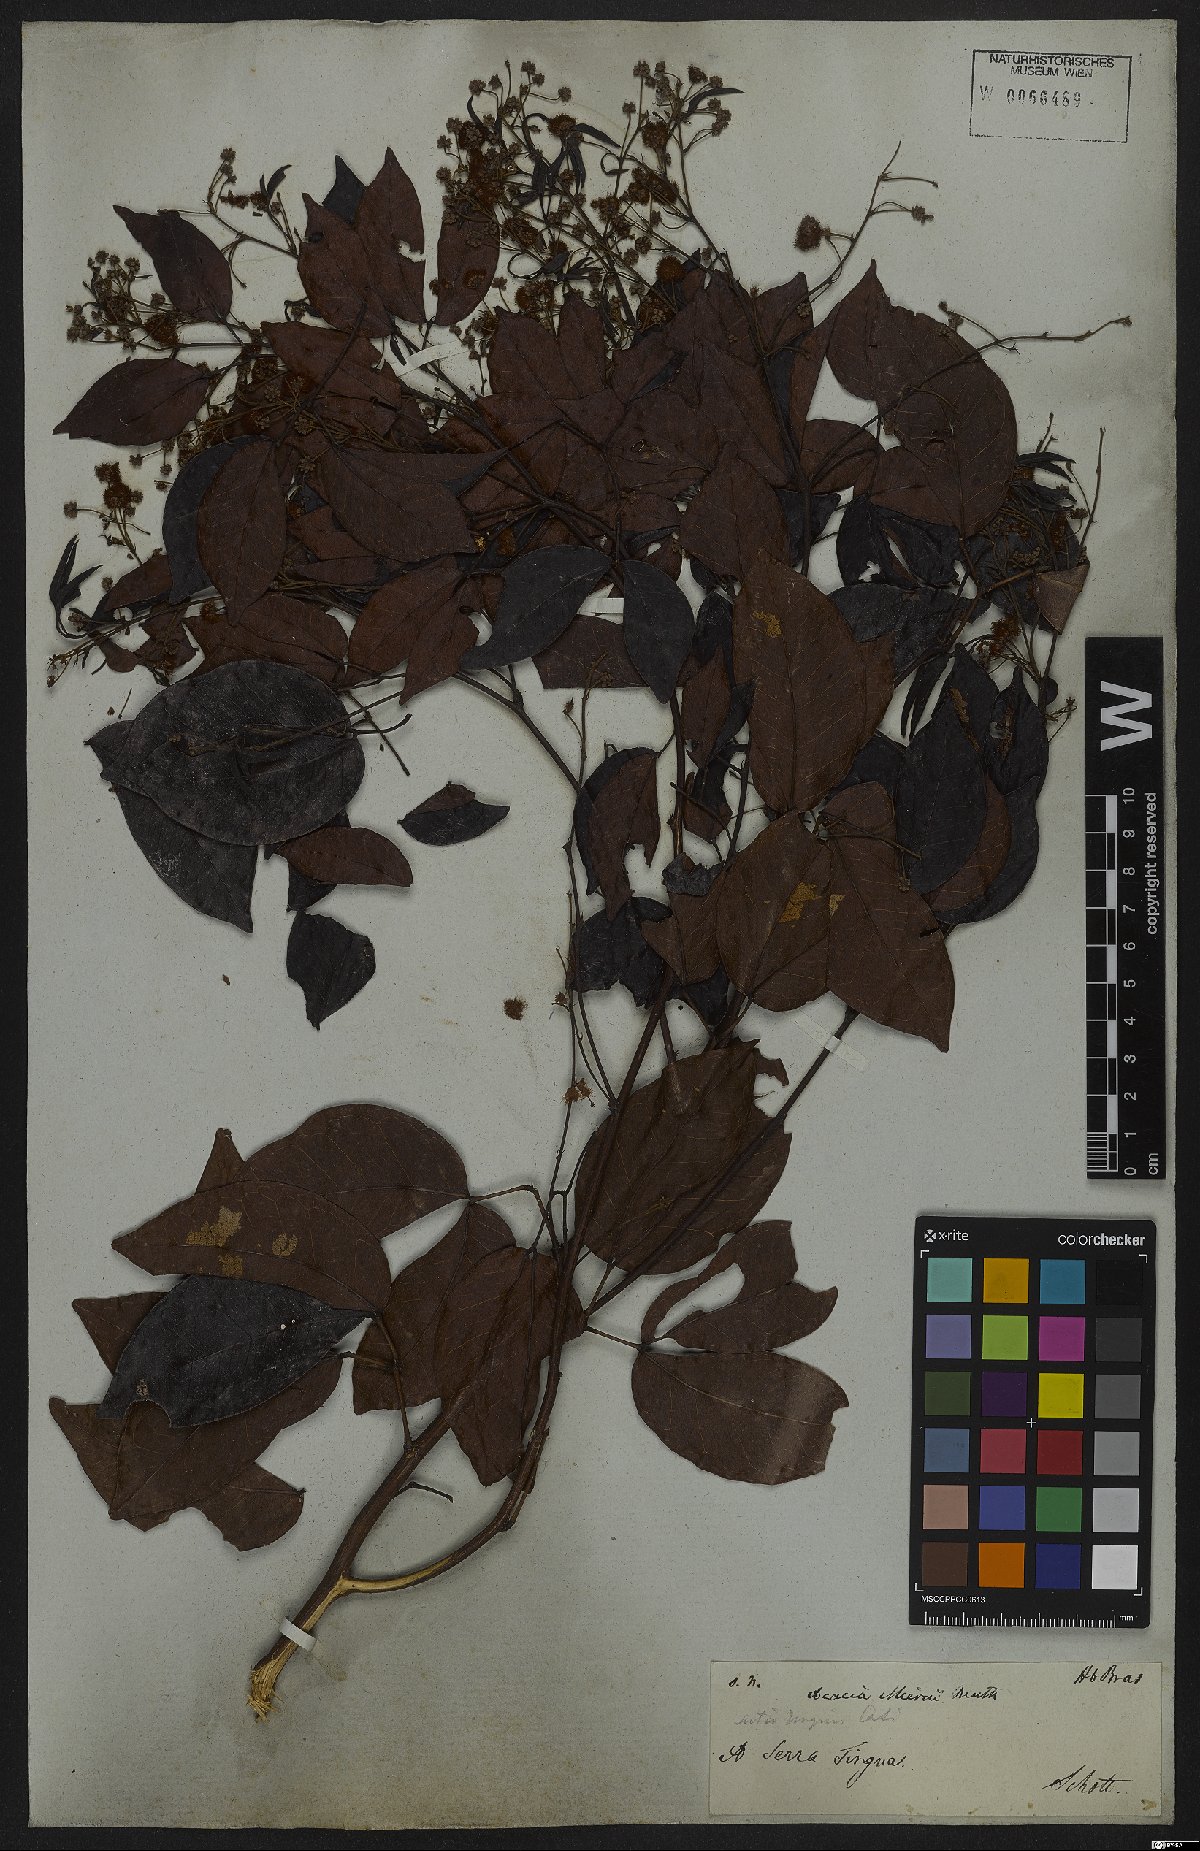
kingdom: Plantae
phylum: Tracheophyta
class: Magnoliopsida
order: Fabales
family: Fabaceae
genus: Parasenegalia
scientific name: Parasenegalia miersii
